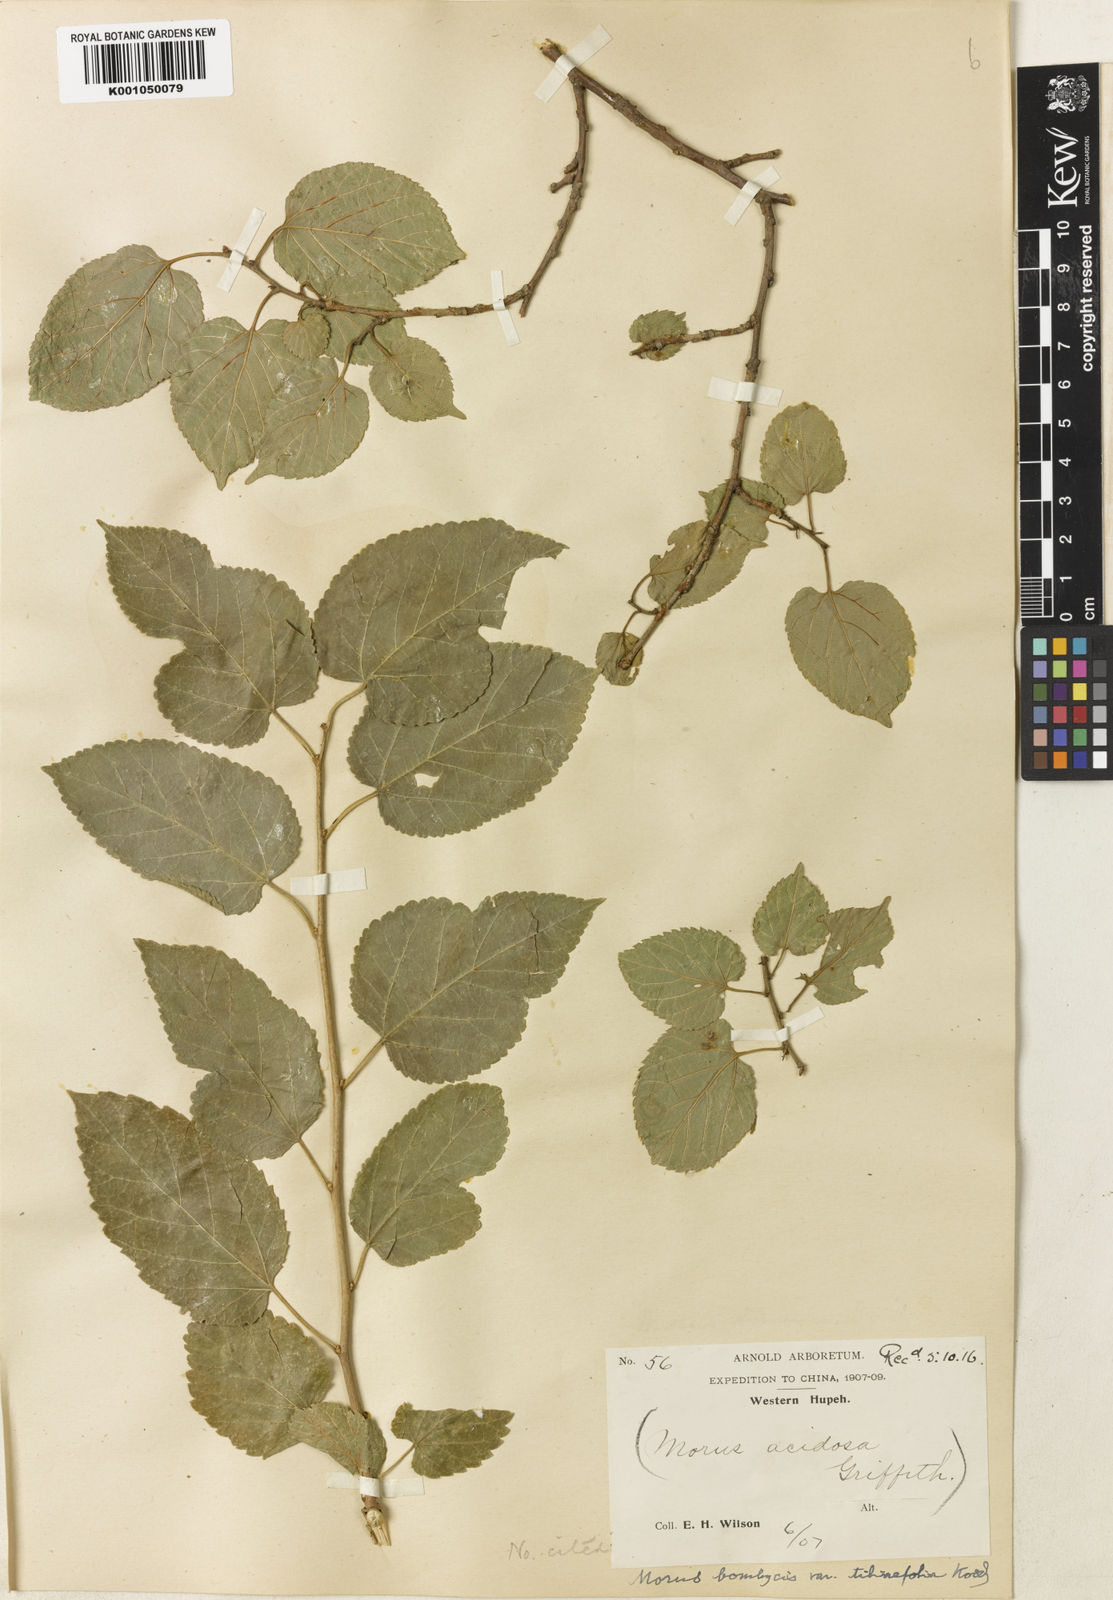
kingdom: Plantae
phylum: Tracheophyta
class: Magnoliopsida
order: Rosales
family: Moraceae
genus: Morus
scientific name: Morus indica
